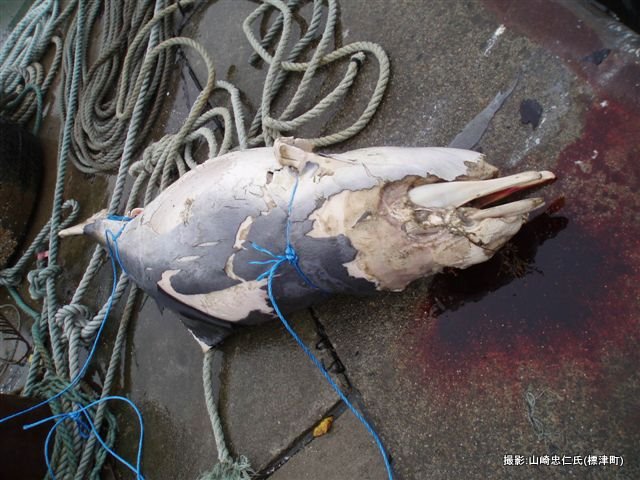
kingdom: Animalia
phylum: Chordata
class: Mammalia
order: Cetacea
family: Phocoenidae
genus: Phocoena
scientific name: Phocoena phocoena
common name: Harbour porpoise
